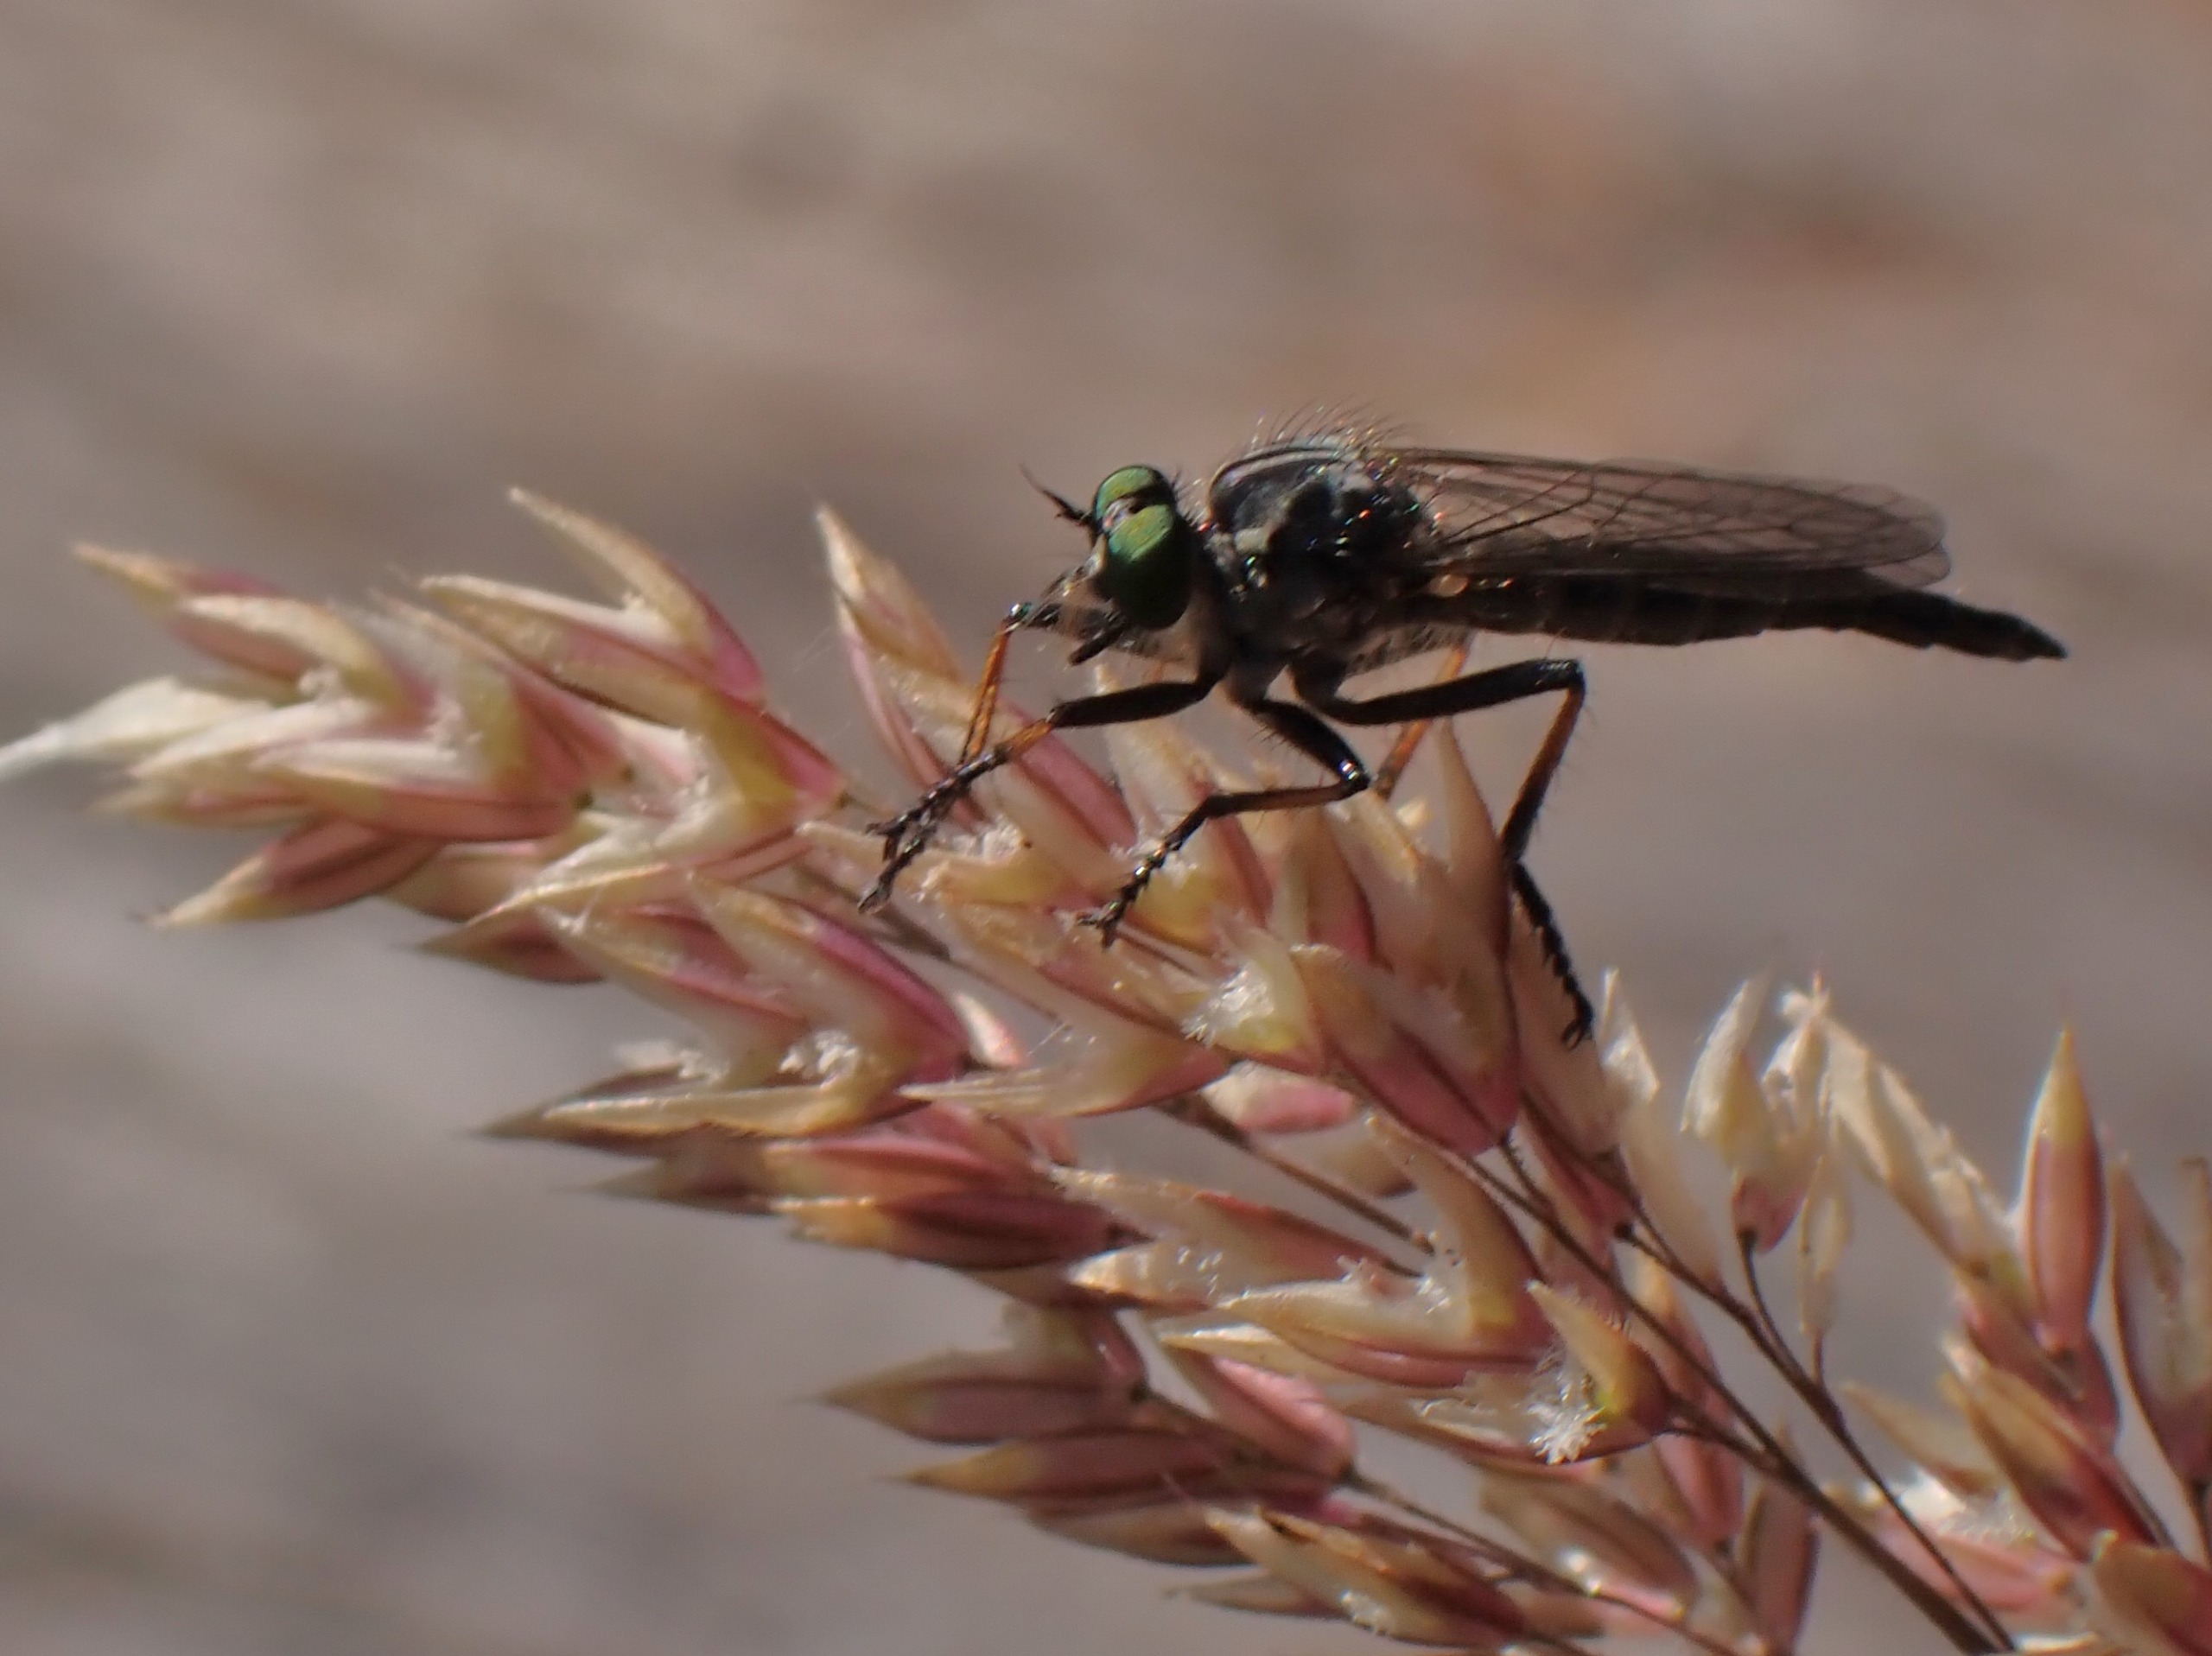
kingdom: Animalia
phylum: Arthropoda
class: Insecta
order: Diptera
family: Asilidae
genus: Neoitamus
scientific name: Neoitamus cyanurus
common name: Sortfodet skovrovflue
